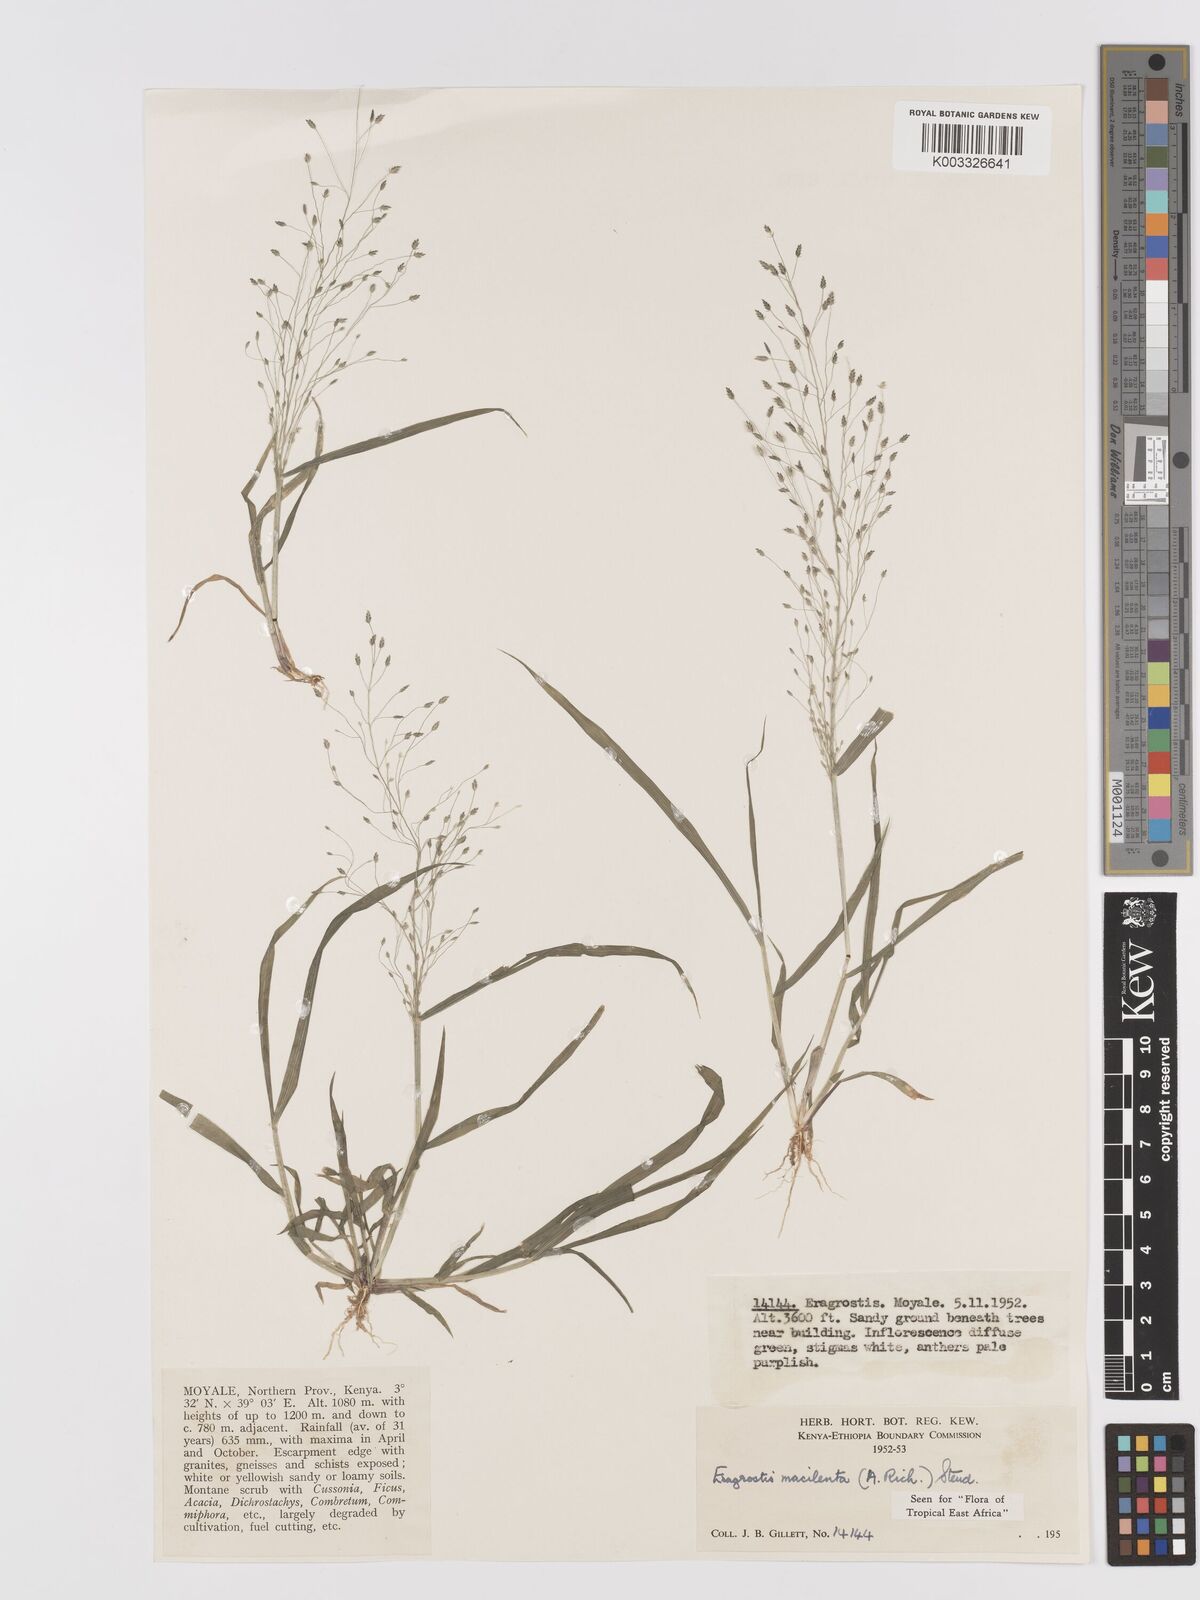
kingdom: Plantae
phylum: Tracheophyta
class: Liliopsida
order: Poales
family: Poaceae
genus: Eragrostis
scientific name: Eragrostis macilenta
